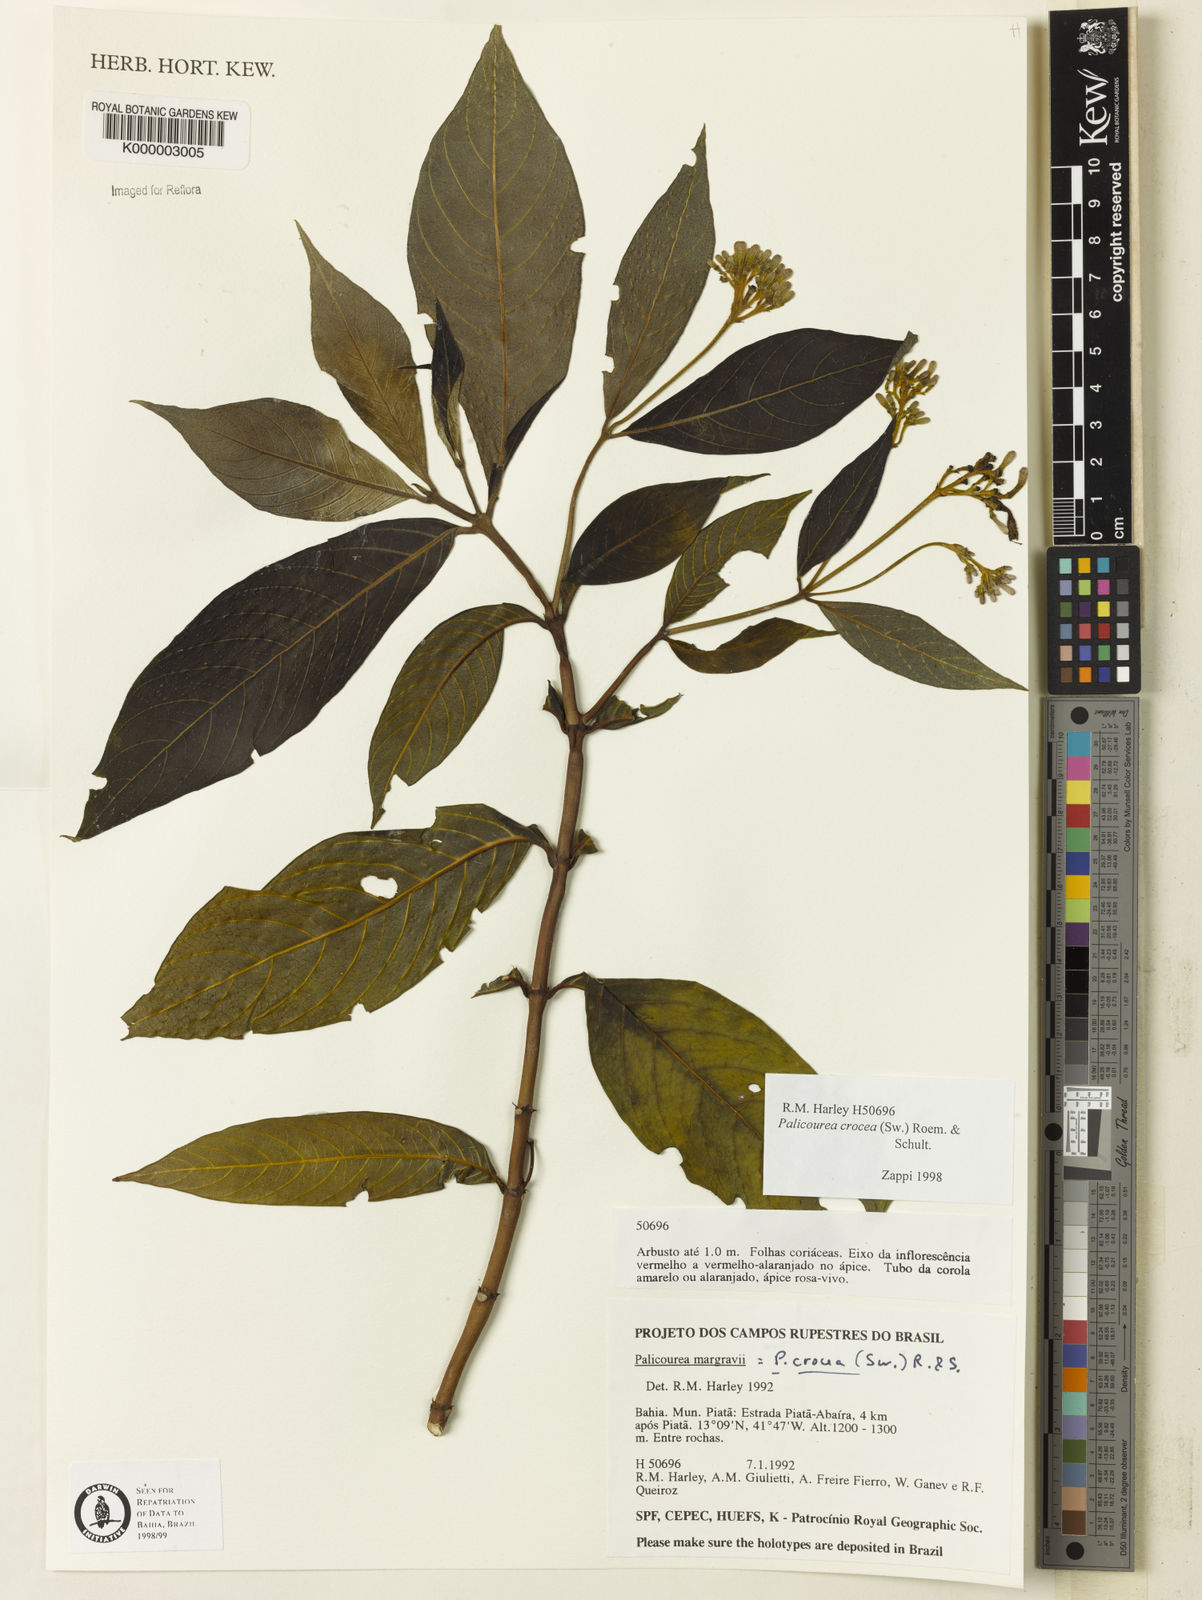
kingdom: Plantae
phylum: Tracheophyta
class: Magnoliopsida
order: Gentianales
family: Rubiaceae
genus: Palicourea
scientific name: Palicourea marcgravii
